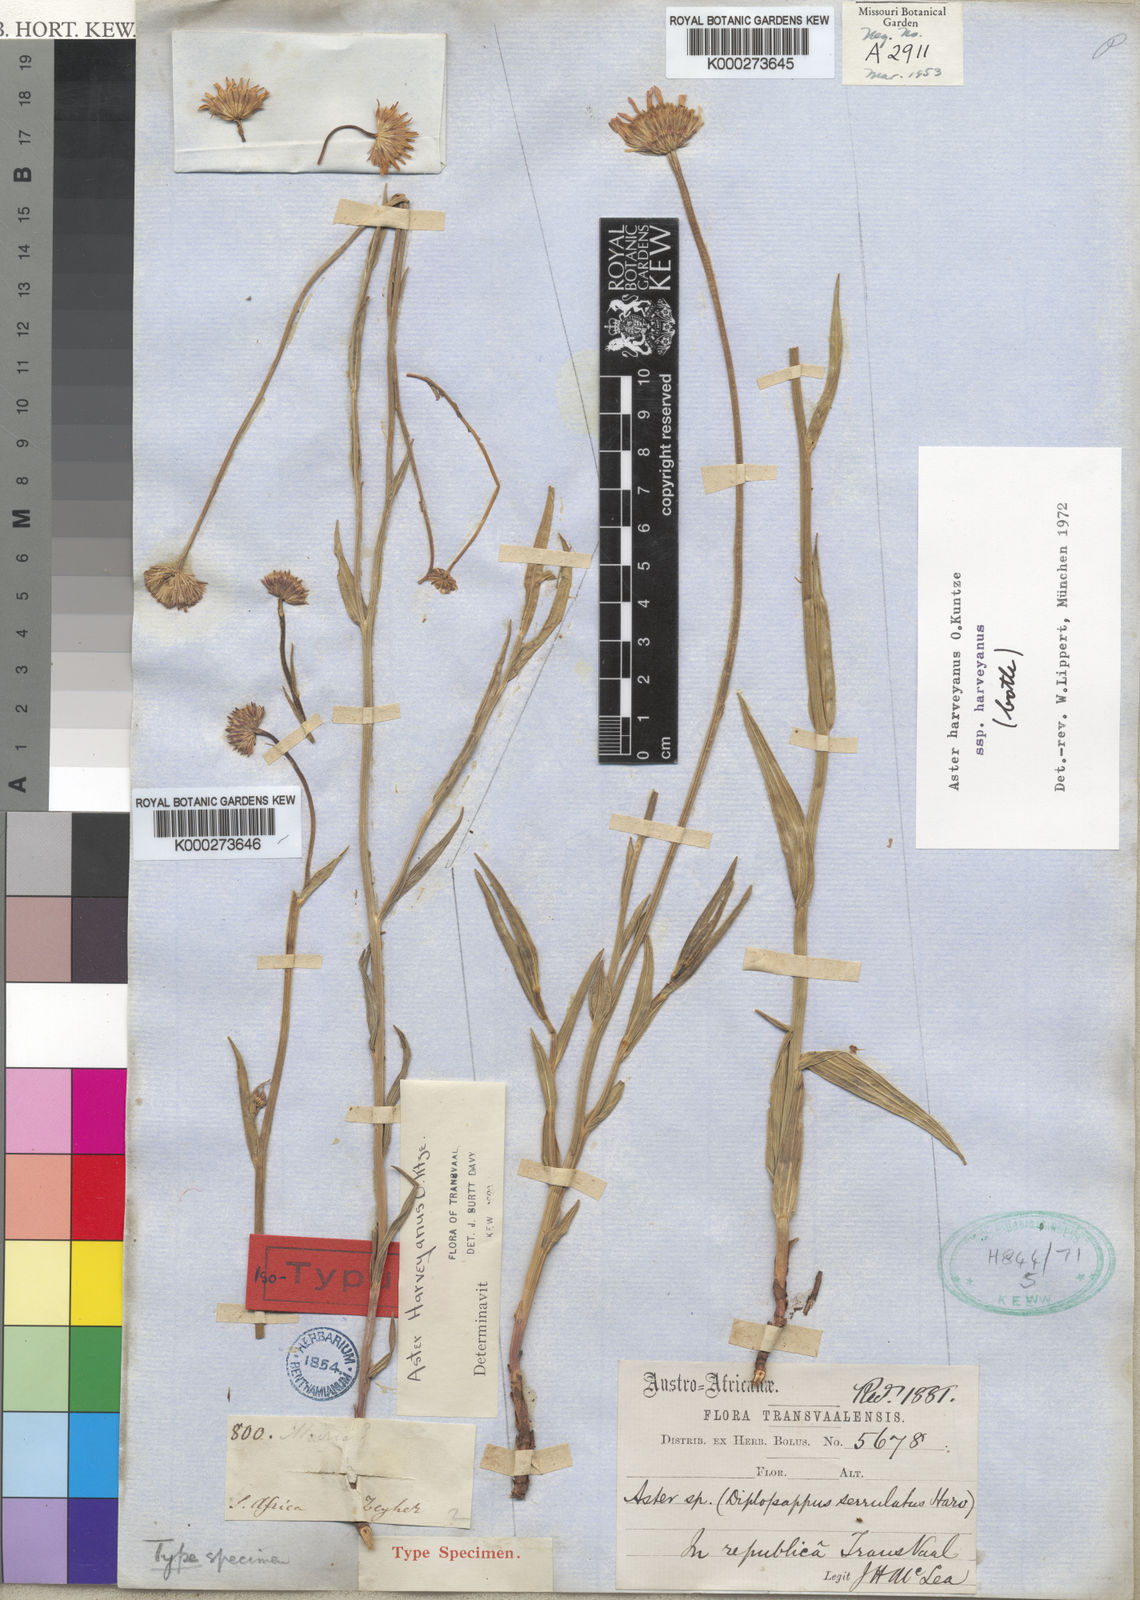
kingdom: Plantae
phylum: Tracheophyta
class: Magnoliopsida
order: Asterales
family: Asteraceae
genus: Afroaster
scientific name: Afroaster serrulatus
